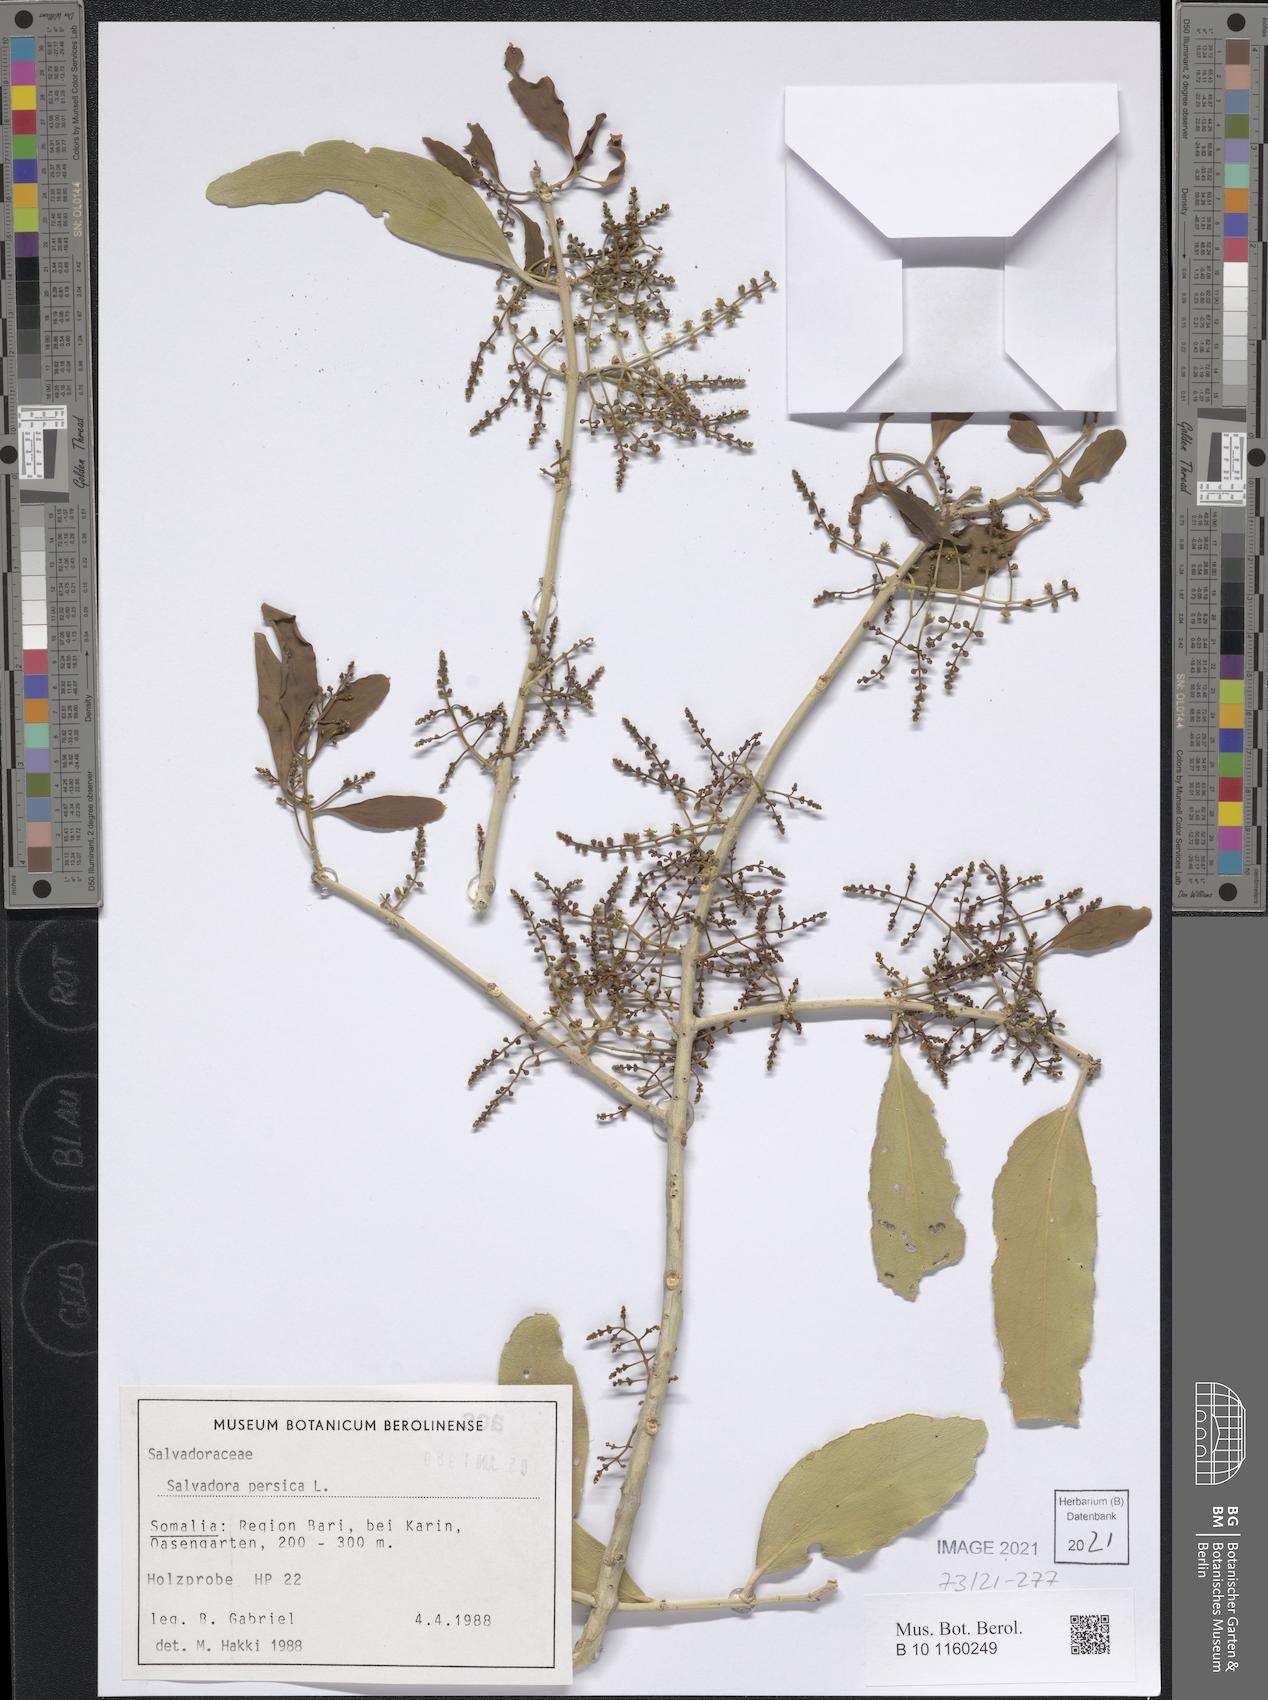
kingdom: Plantae
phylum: Tracheophyta
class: Magnoliopsida
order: Brassicales
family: Salvadoraceae
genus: Salvadora
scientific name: Salvadora persica
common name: Toothbrushtree
